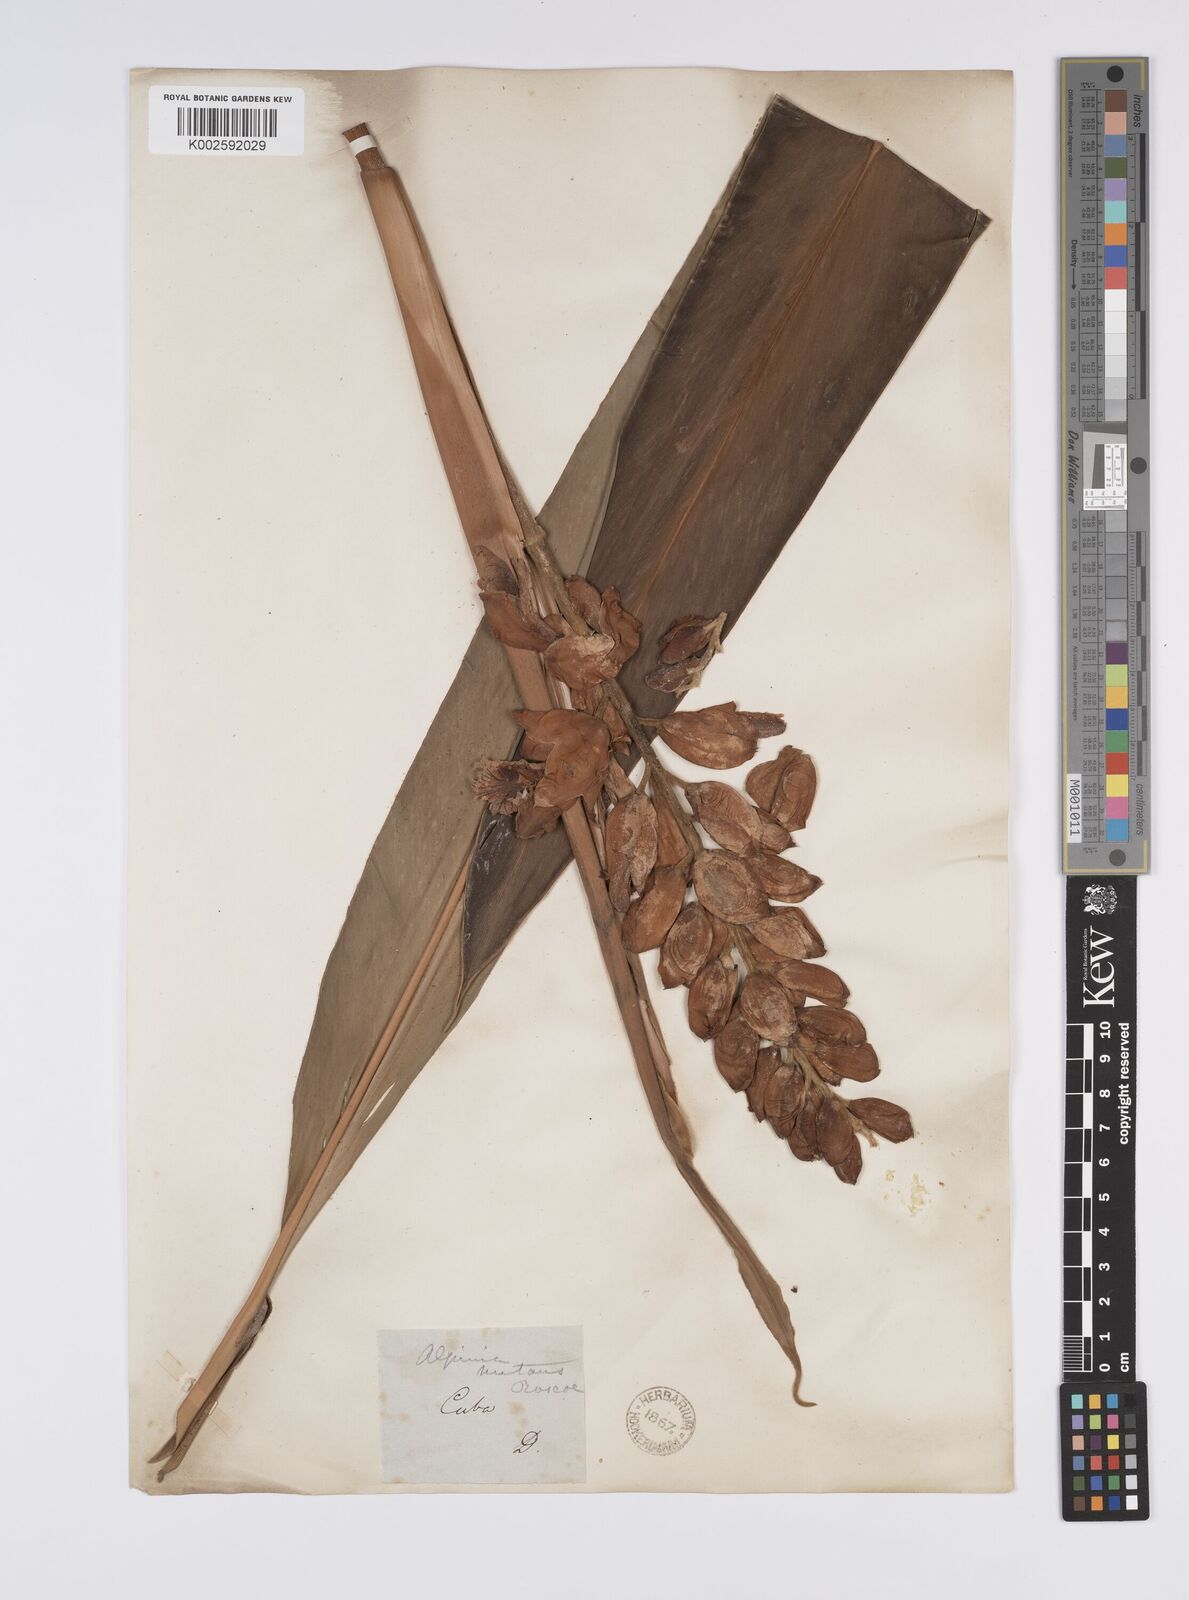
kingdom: Plantae
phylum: Tracheophyta
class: Liliopsida
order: Zingiberales
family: Zingiberaceae
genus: Alpinia
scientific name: Alpinia zerumbet
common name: Shellplant
